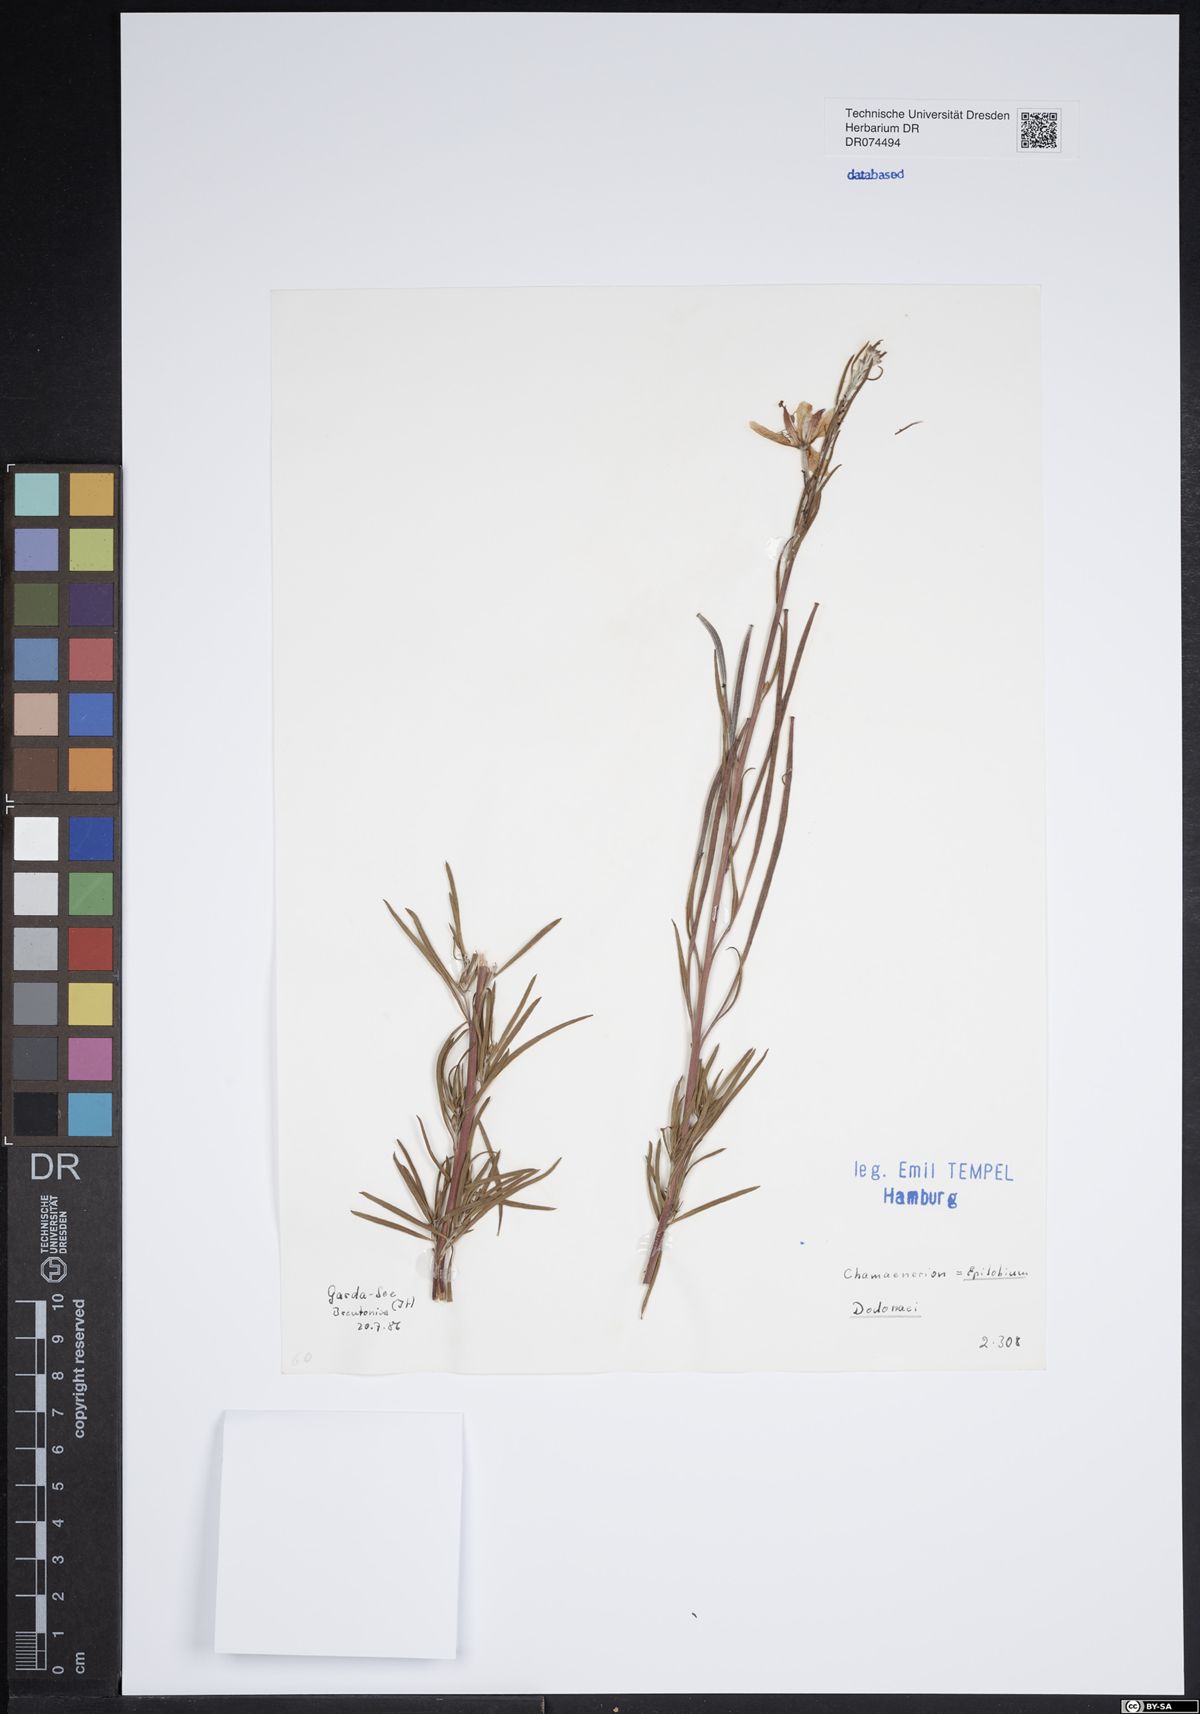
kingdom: Plantae
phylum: Tracheophyta
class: Magnoliopsida
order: Myrtales
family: Onagraceae
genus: Chamaenerion
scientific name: Chamaenerion dodonaei
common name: Rosemary-leaved willowherb
